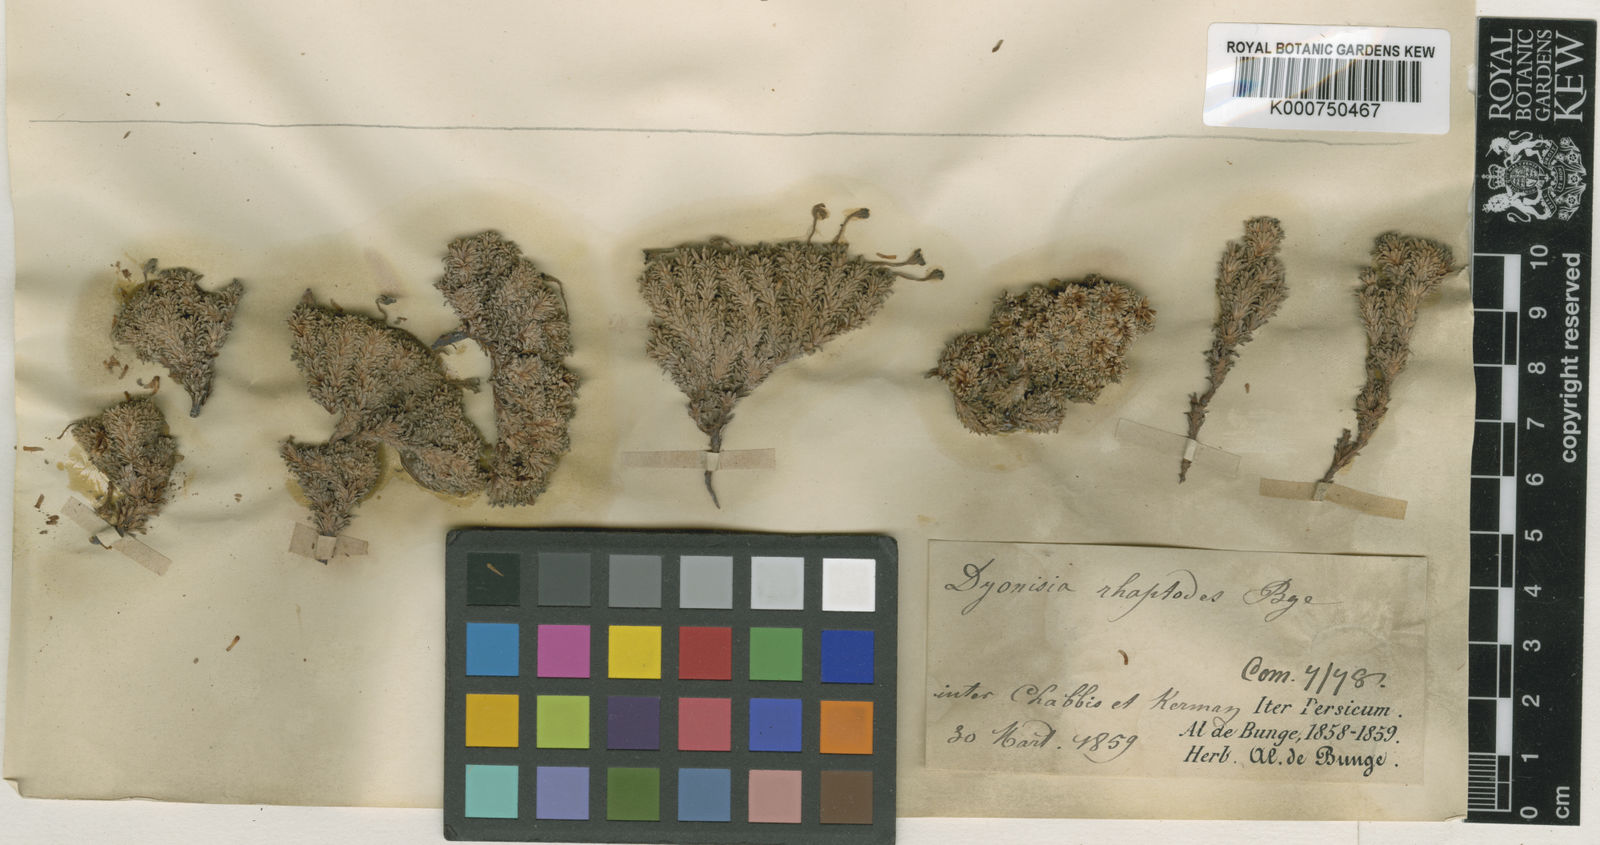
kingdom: Plantae
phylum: Tracheophyta
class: Magnoliopsida
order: Ericales
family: Primulaceae
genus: Dionysia
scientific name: Dionysia rhaptodes
